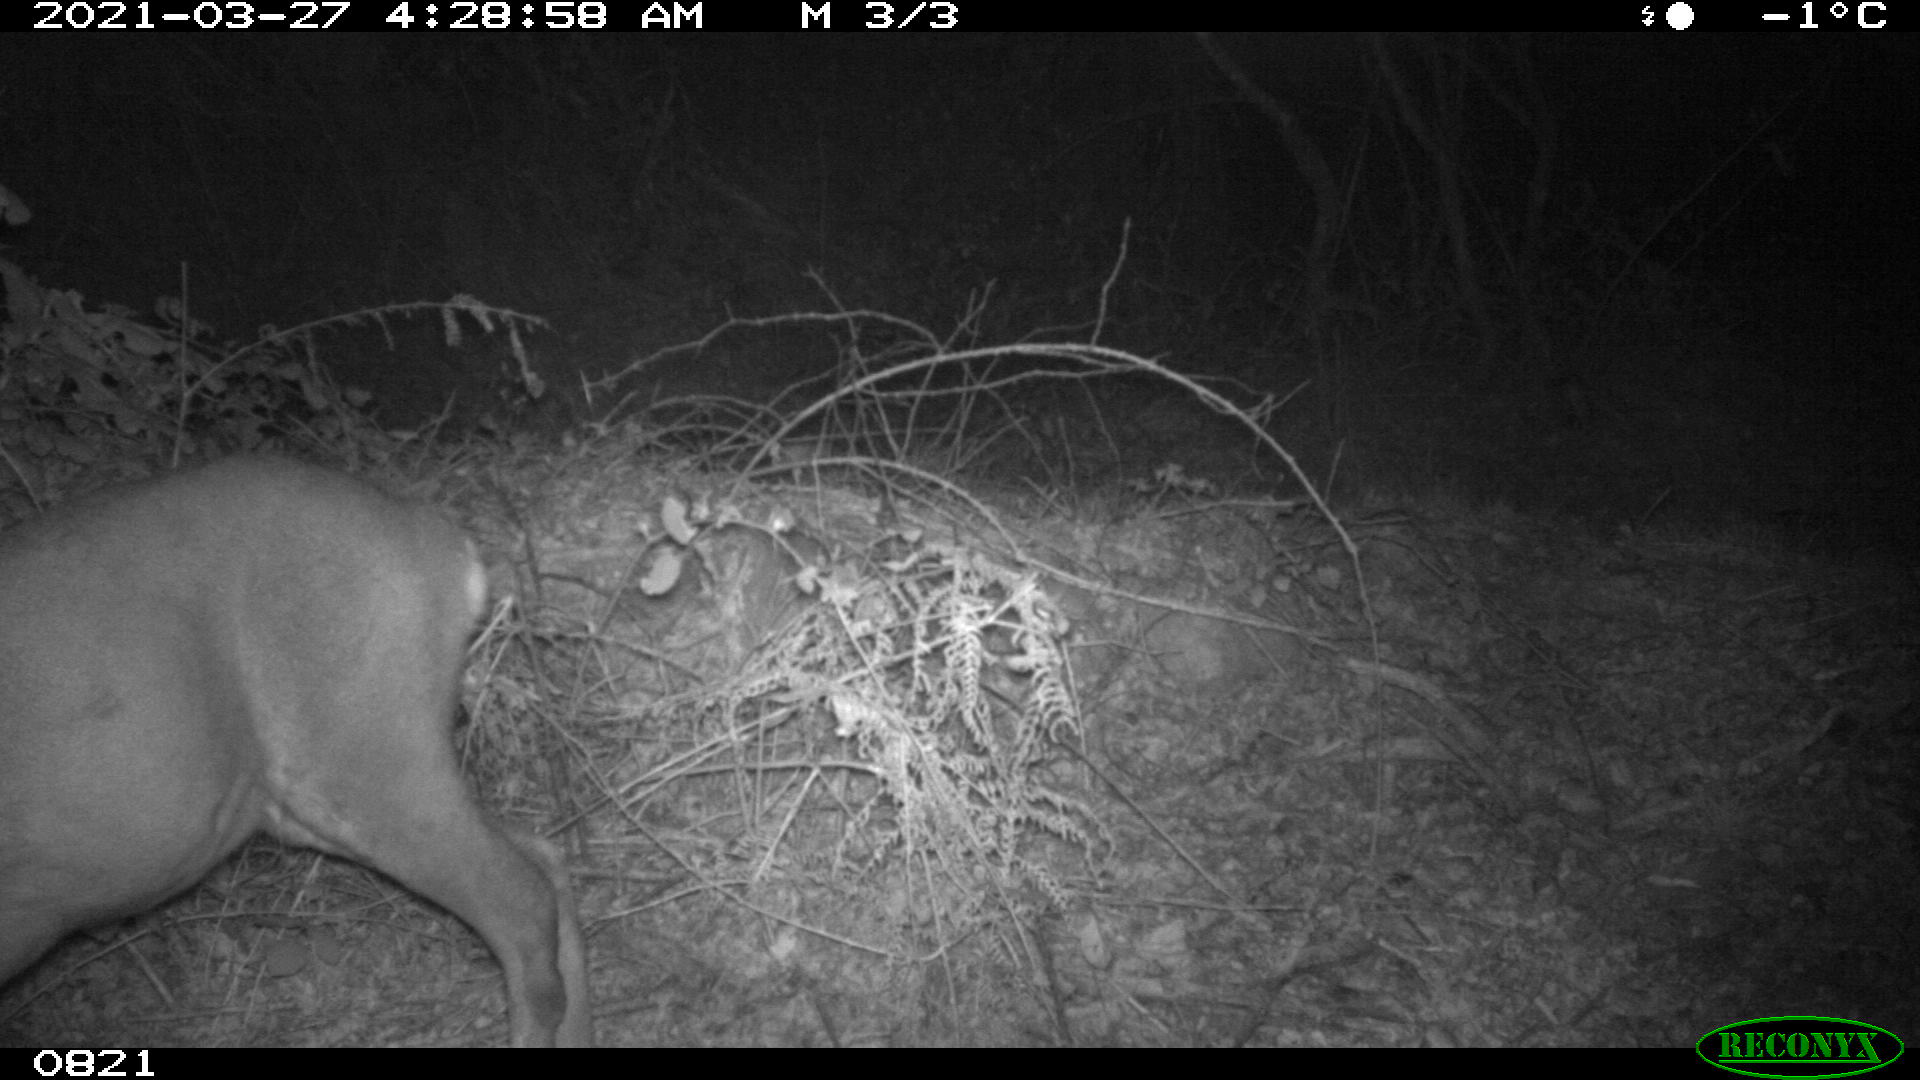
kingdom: Animalia
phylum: Chordata
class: Mammalia
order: Artiodactyla
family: Cervidae
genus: Capreolus
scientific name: Capreolus capreolus
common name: Western roe deer
